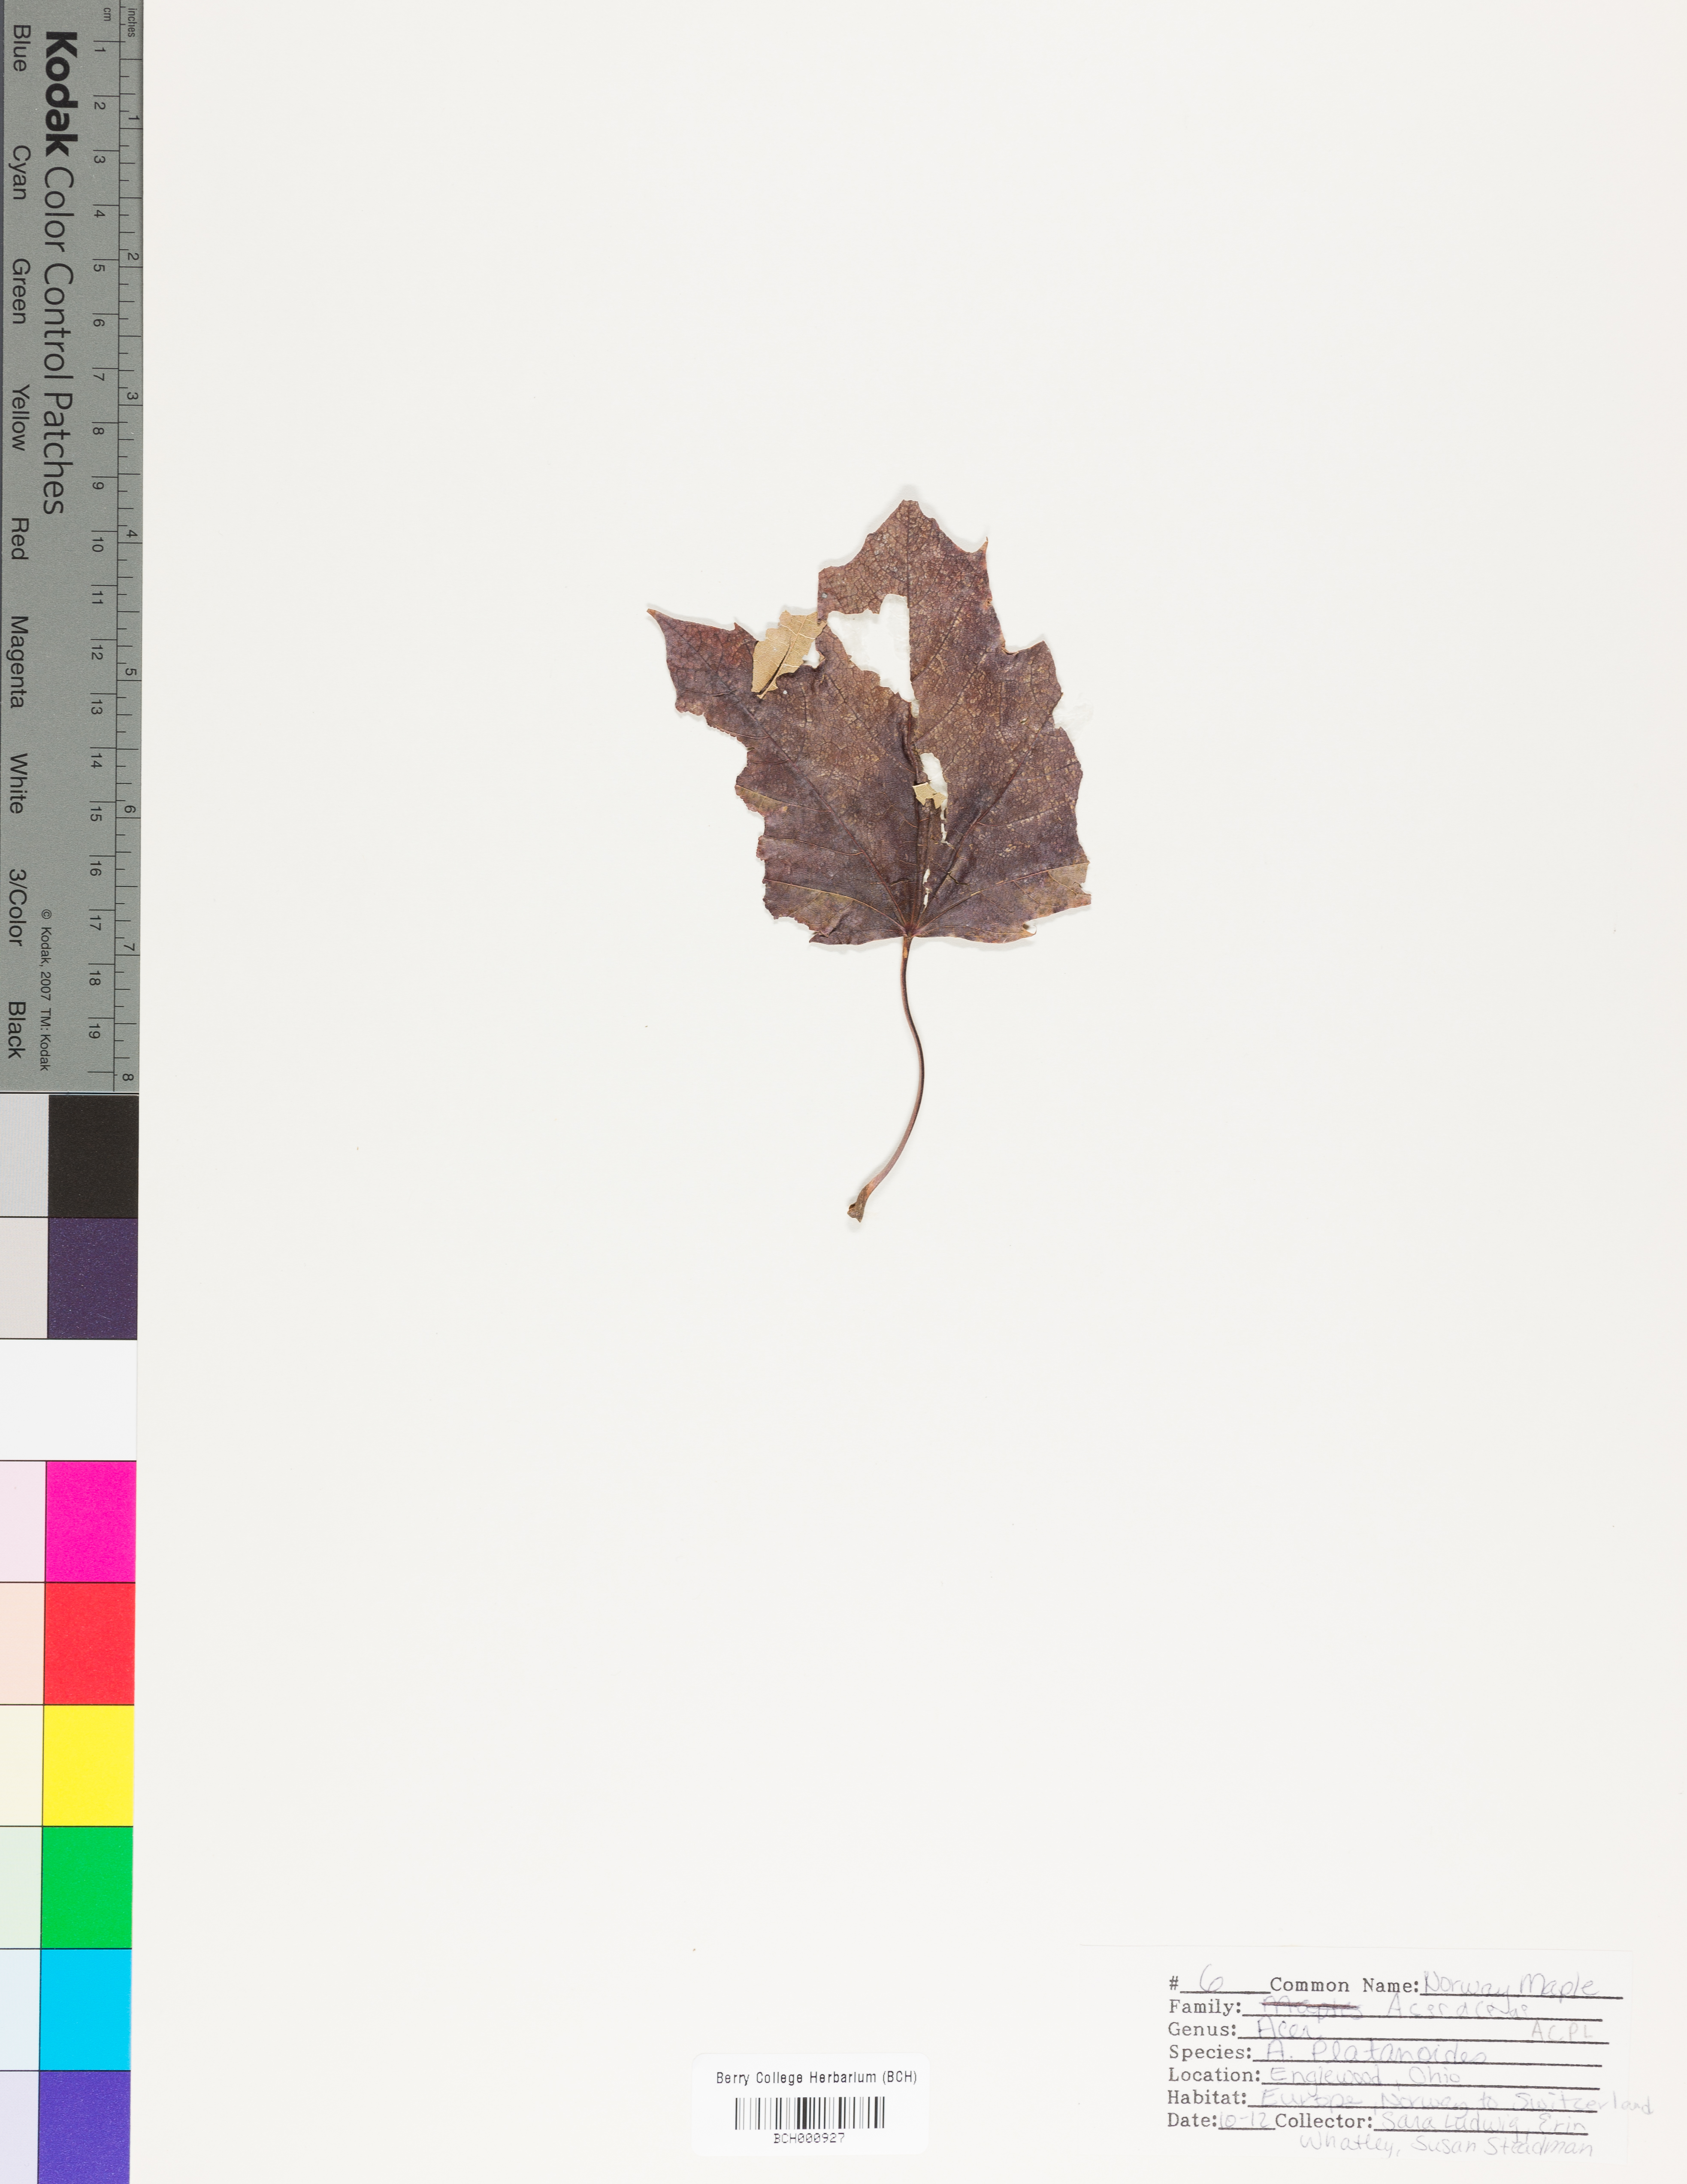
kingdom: Plantae
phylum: Tracheophyta
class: Magnoliopsida
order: Sapindales
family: Sapindaceae
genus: Acer
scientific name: Acer platanoides
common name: Norway maple
